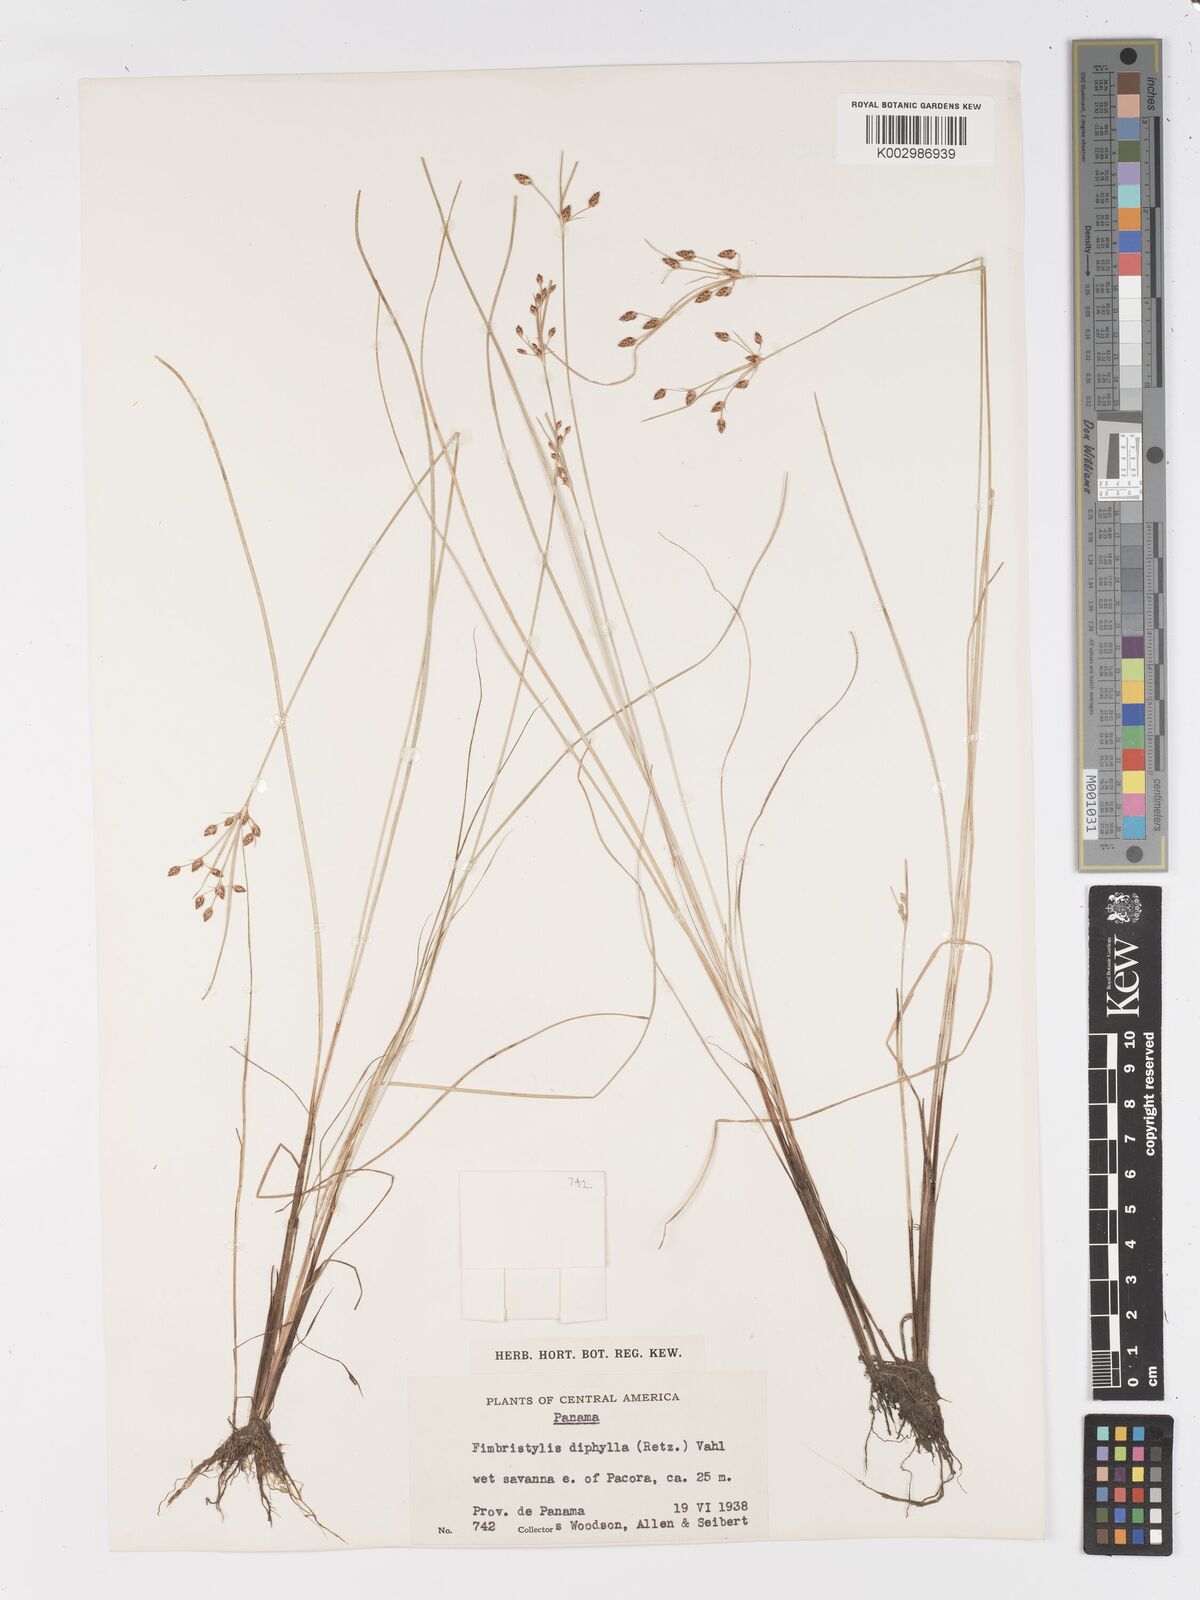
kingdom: Plantae
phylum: Tracheophyta
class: Liliopsida
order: Poales
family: Cyperaceae
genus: Fimbristylis
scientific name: Fimbristylis dichotoma
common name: Forked fimbry
